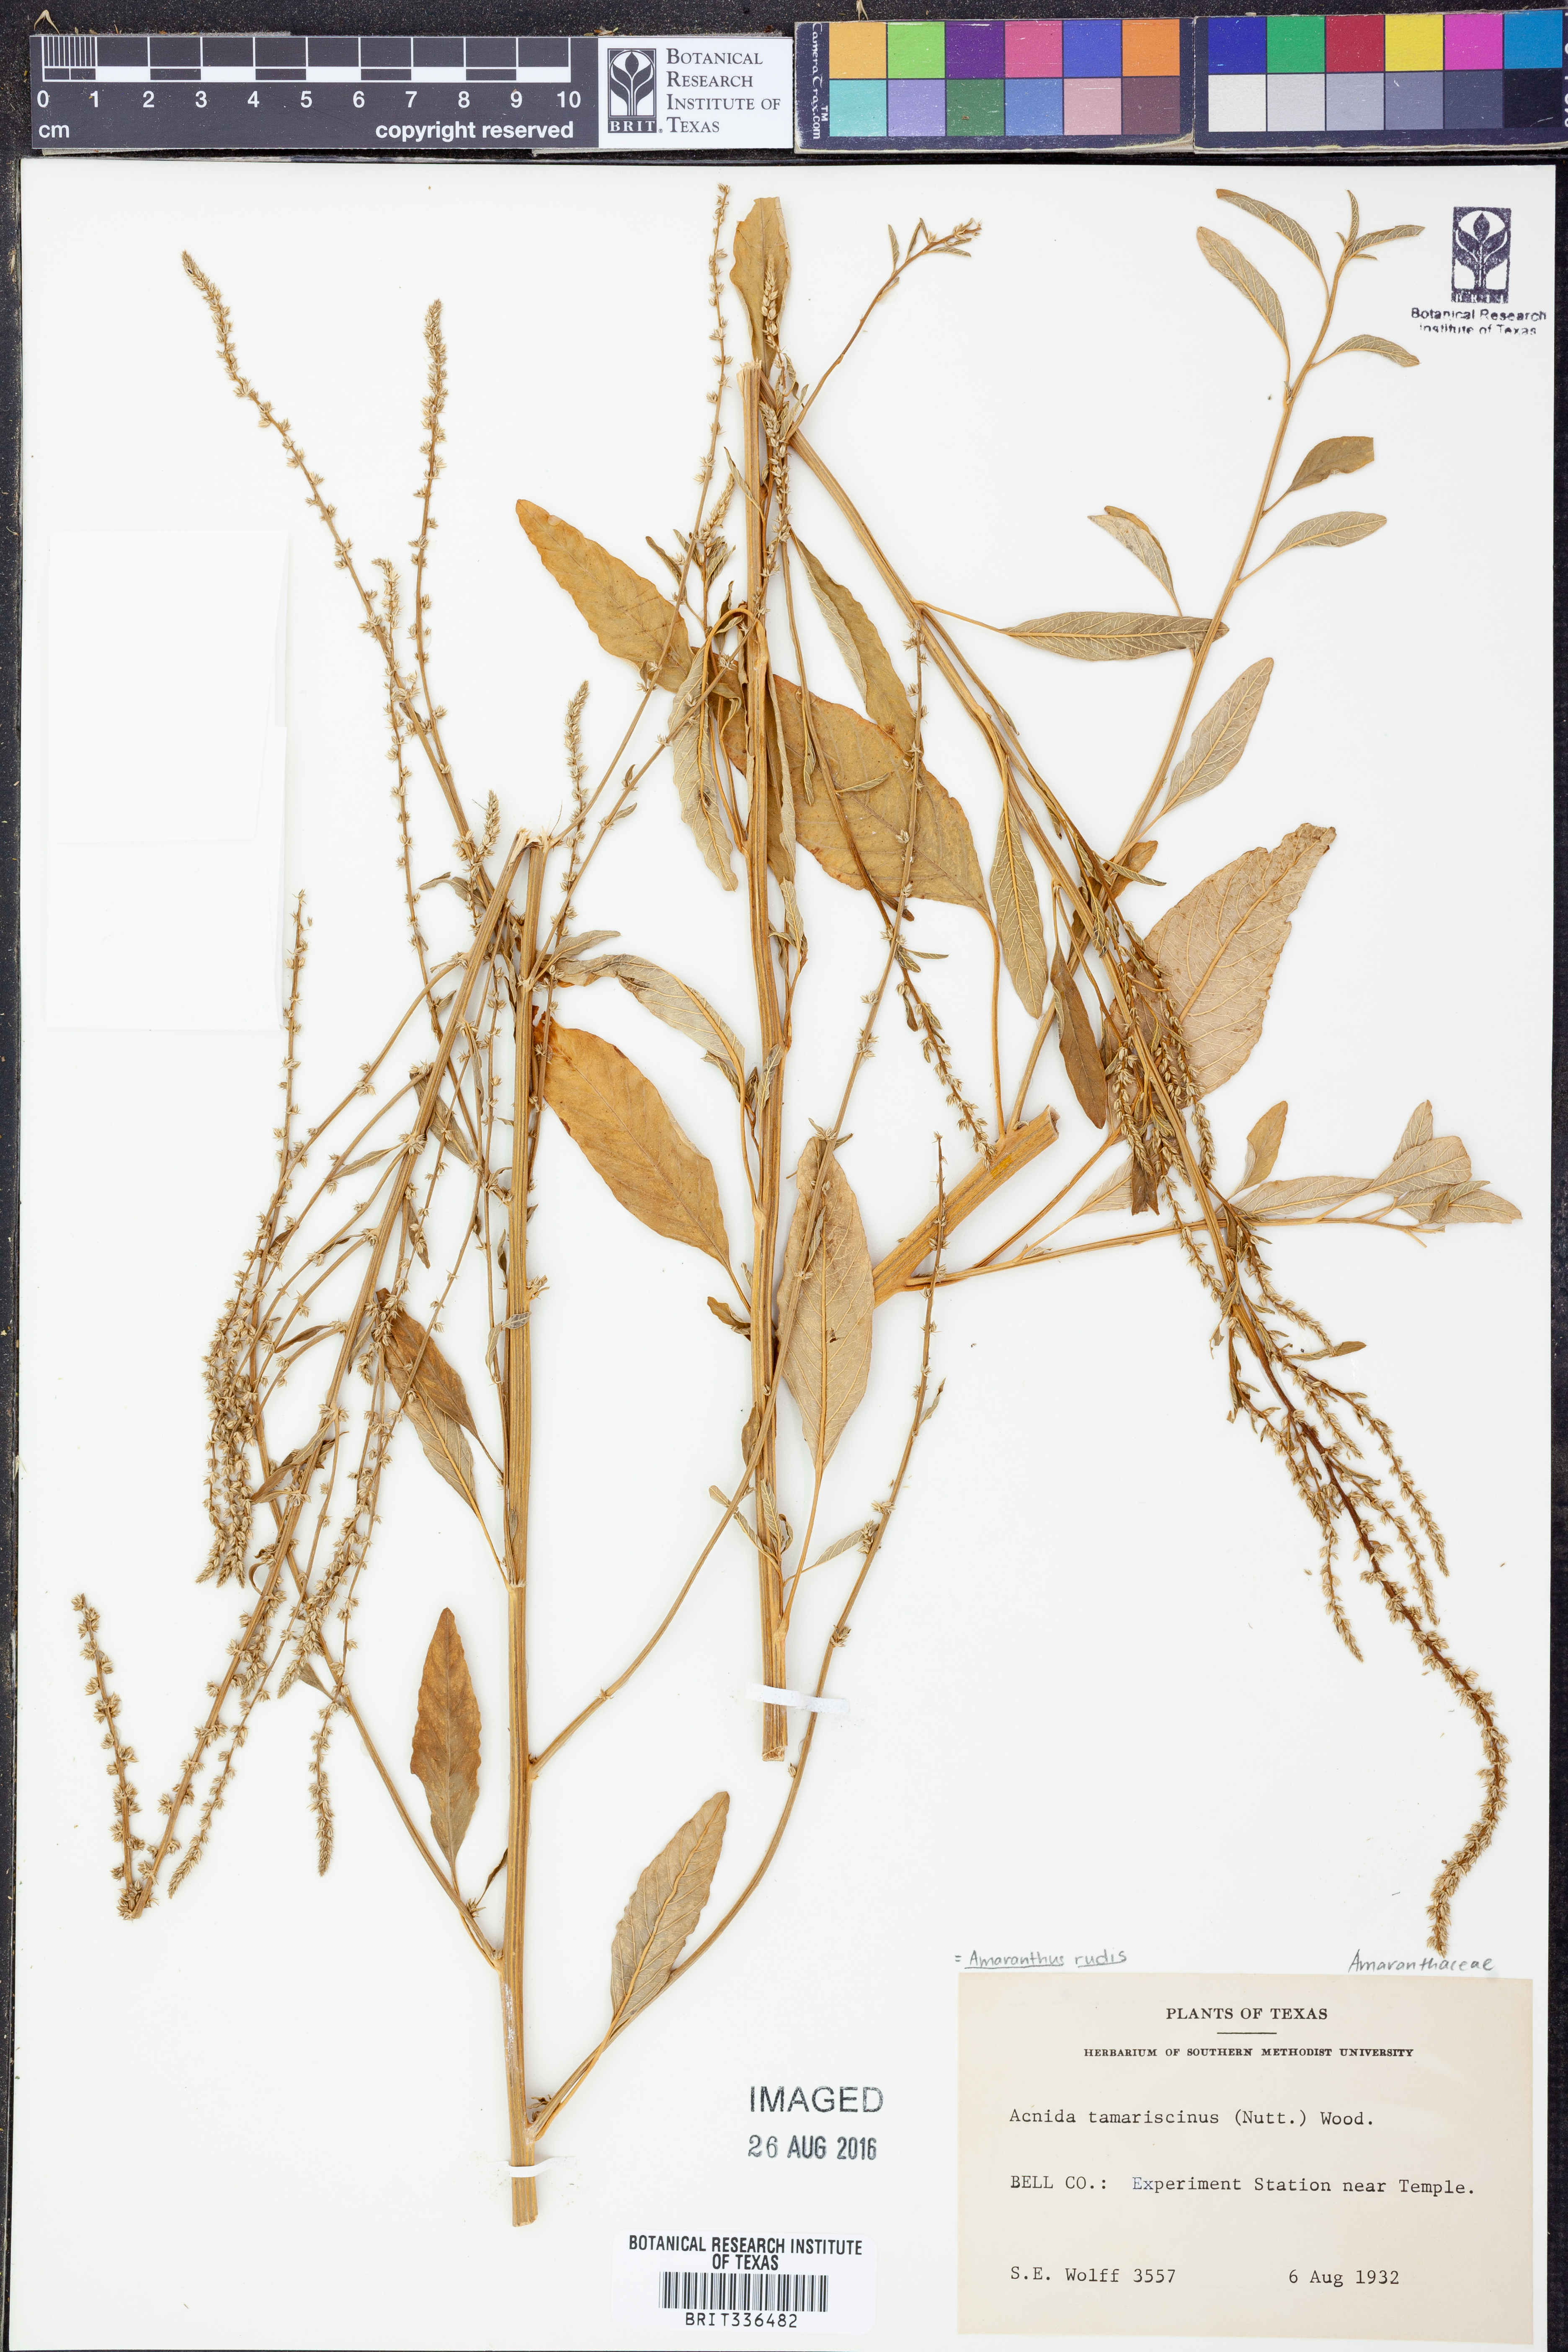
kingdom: Plantae
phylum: Tracheophyta
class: Magnoliopsida
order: Caryophyllales
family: Amaranthaceae
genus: Amaranthus
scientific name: Amaranthus tuberculatus
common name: Rough-fruit amaranth
